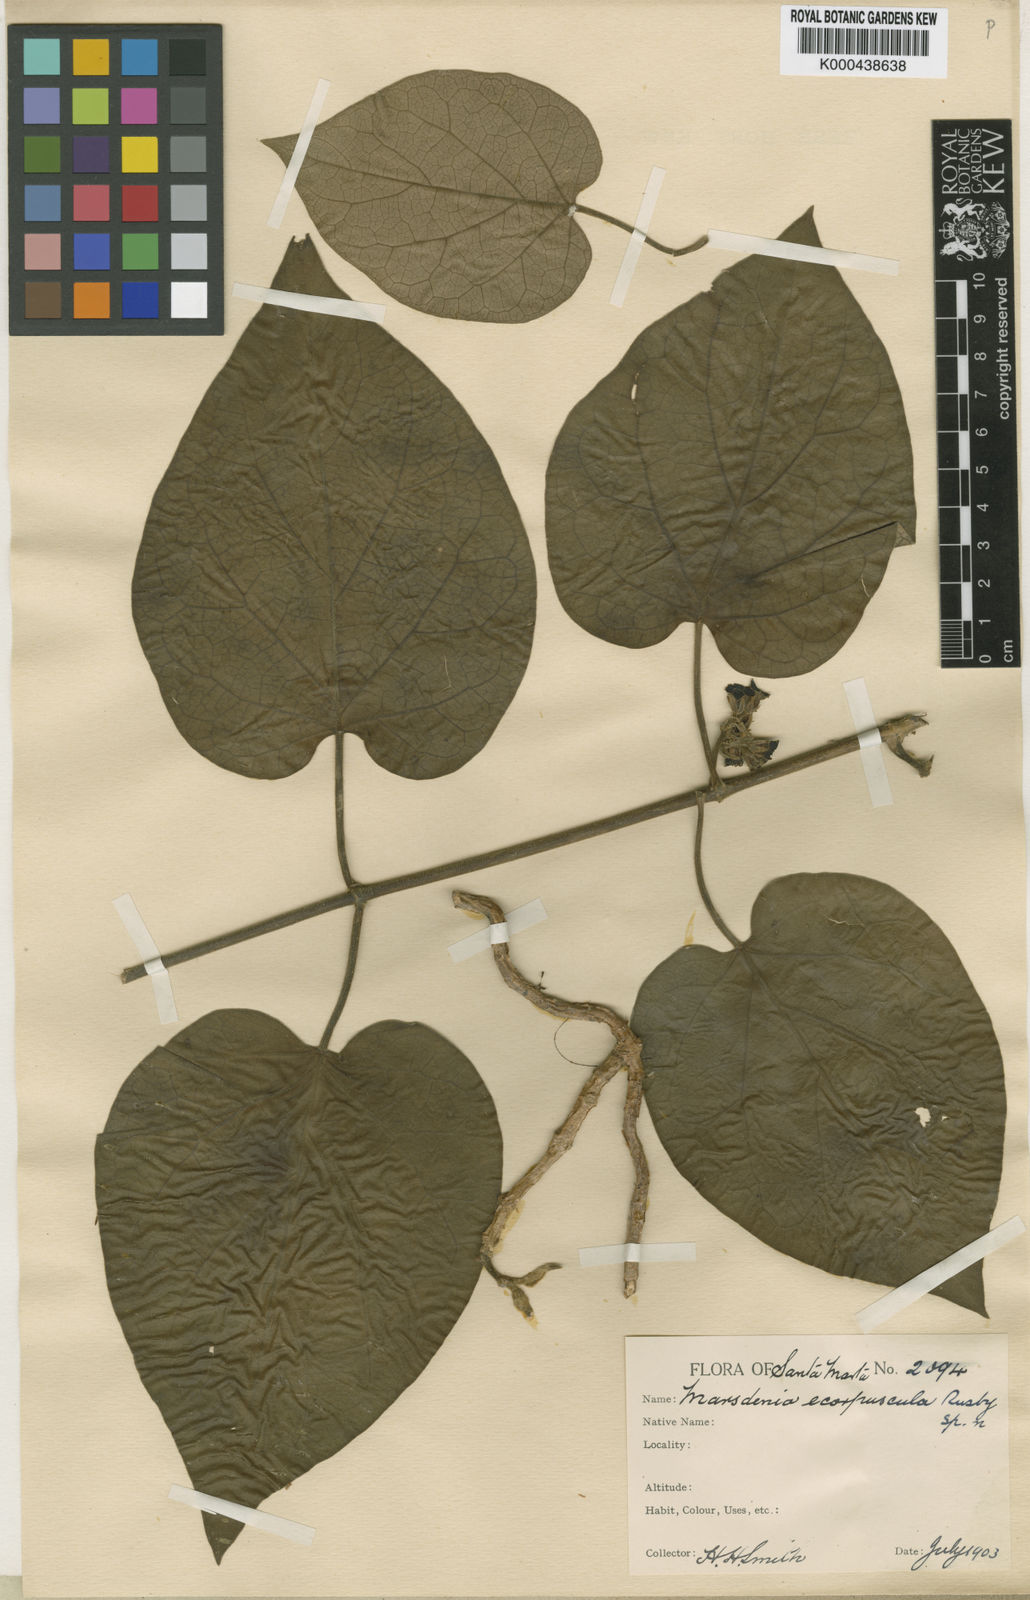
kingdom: Plantae
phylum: Tracheophyta
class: Magnoliopsida
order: Gentianales
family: Apocynaceae
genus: Ruehssia
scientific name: Ruehssia altissima
